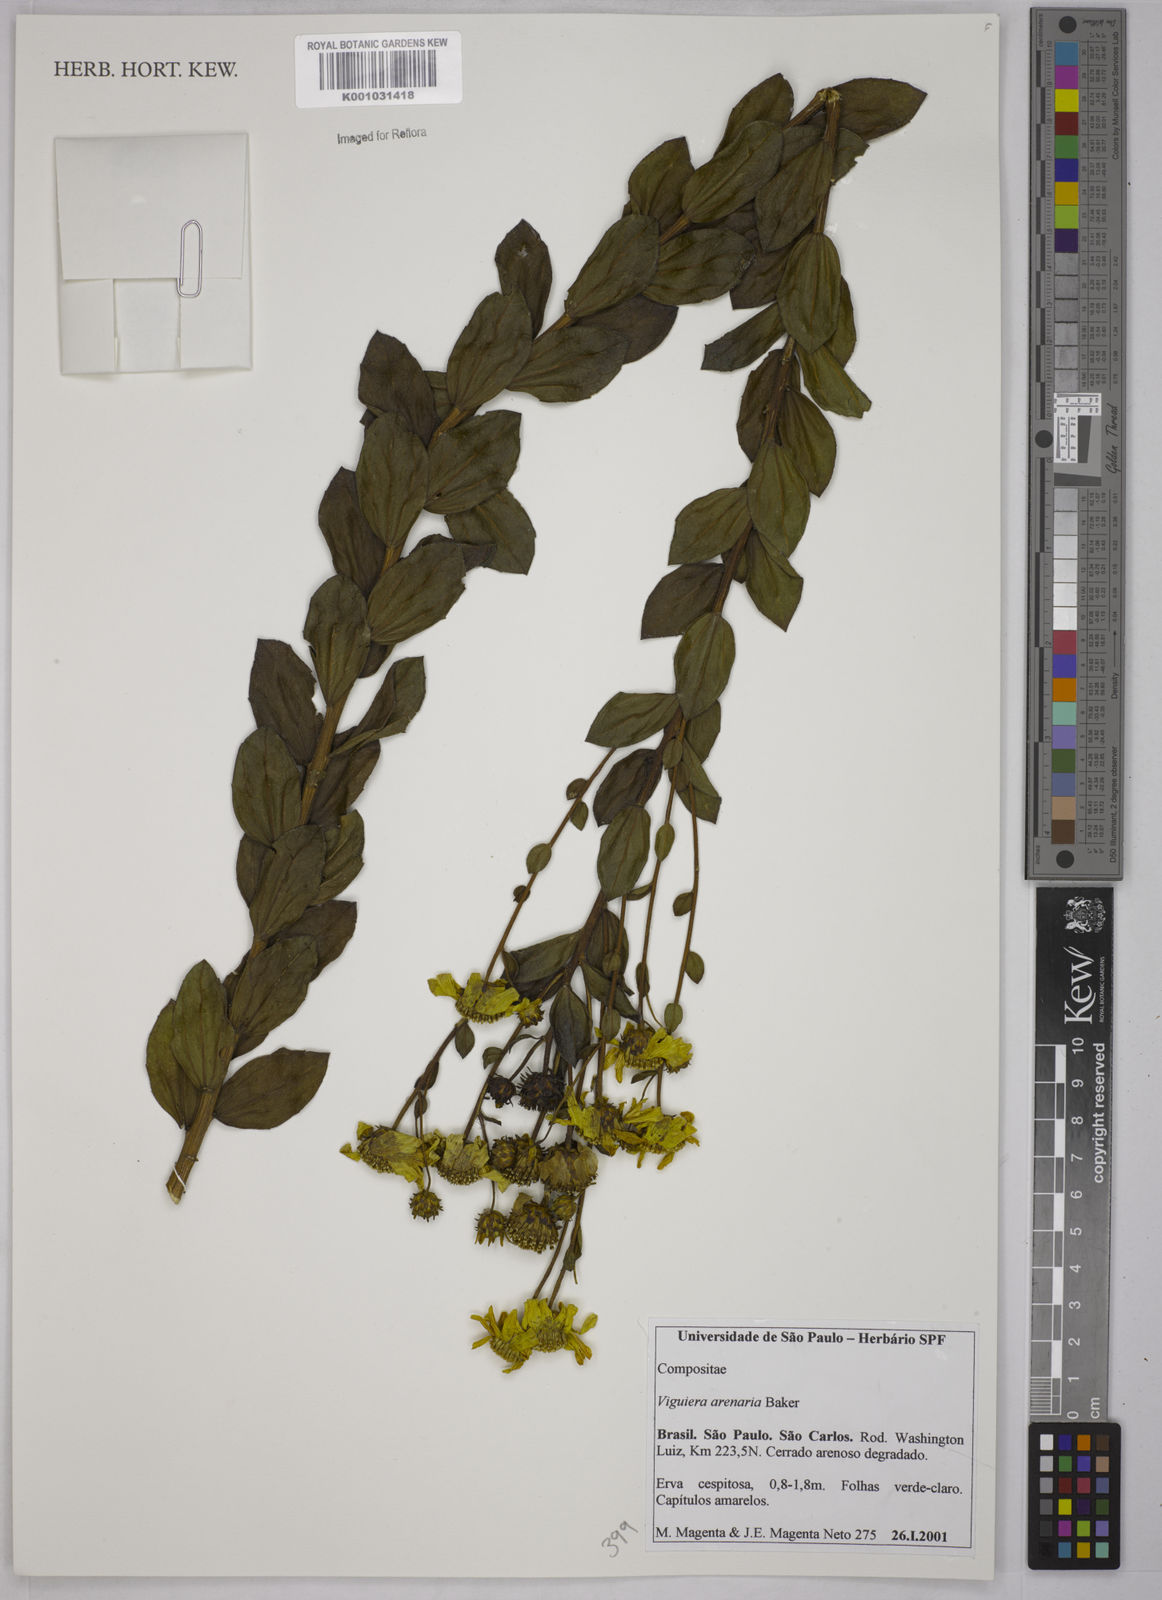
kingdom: Plantae
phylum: Tracheophyta
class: Magnoliopsida
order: Asterales
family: Asteraceae
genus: Aldama
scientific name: Aldama arenaria
